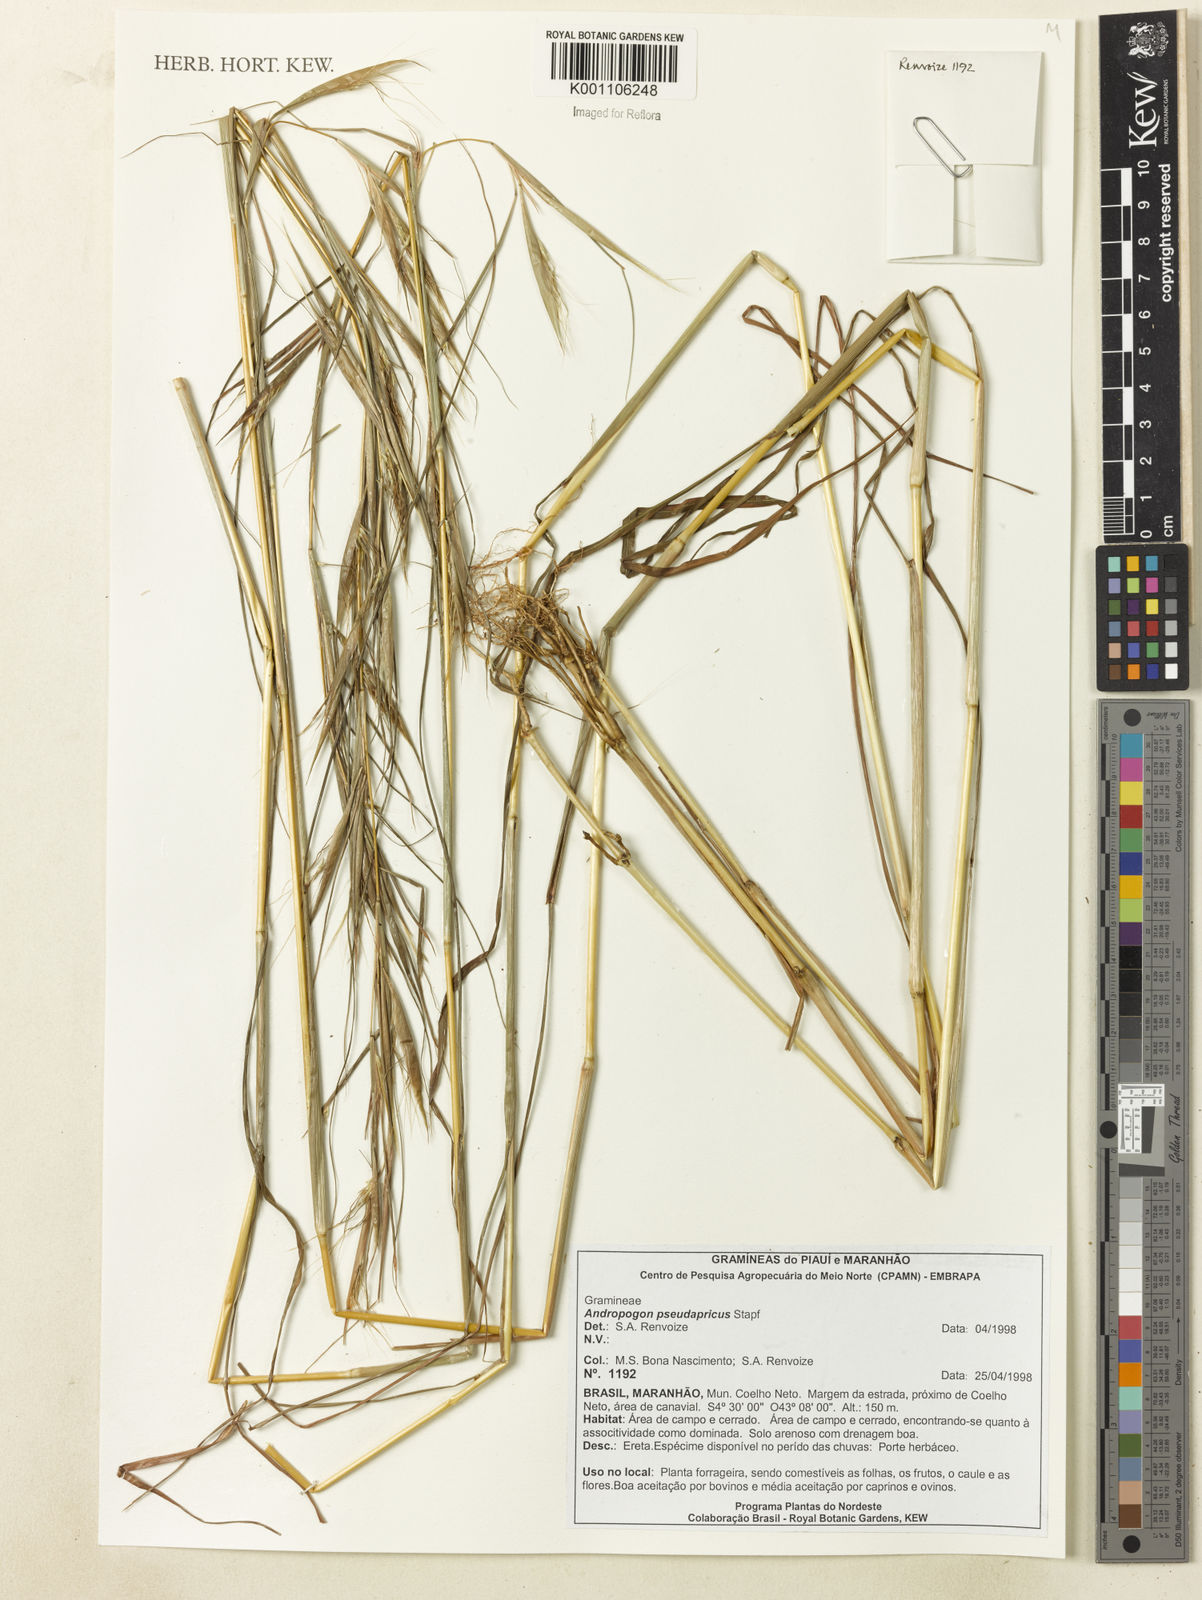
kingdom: Plantae
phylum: Tracheophyta
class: Liliopsida
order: Poales
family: Poaceae
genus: Andropogon
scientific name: Andropogon pseudapricus
